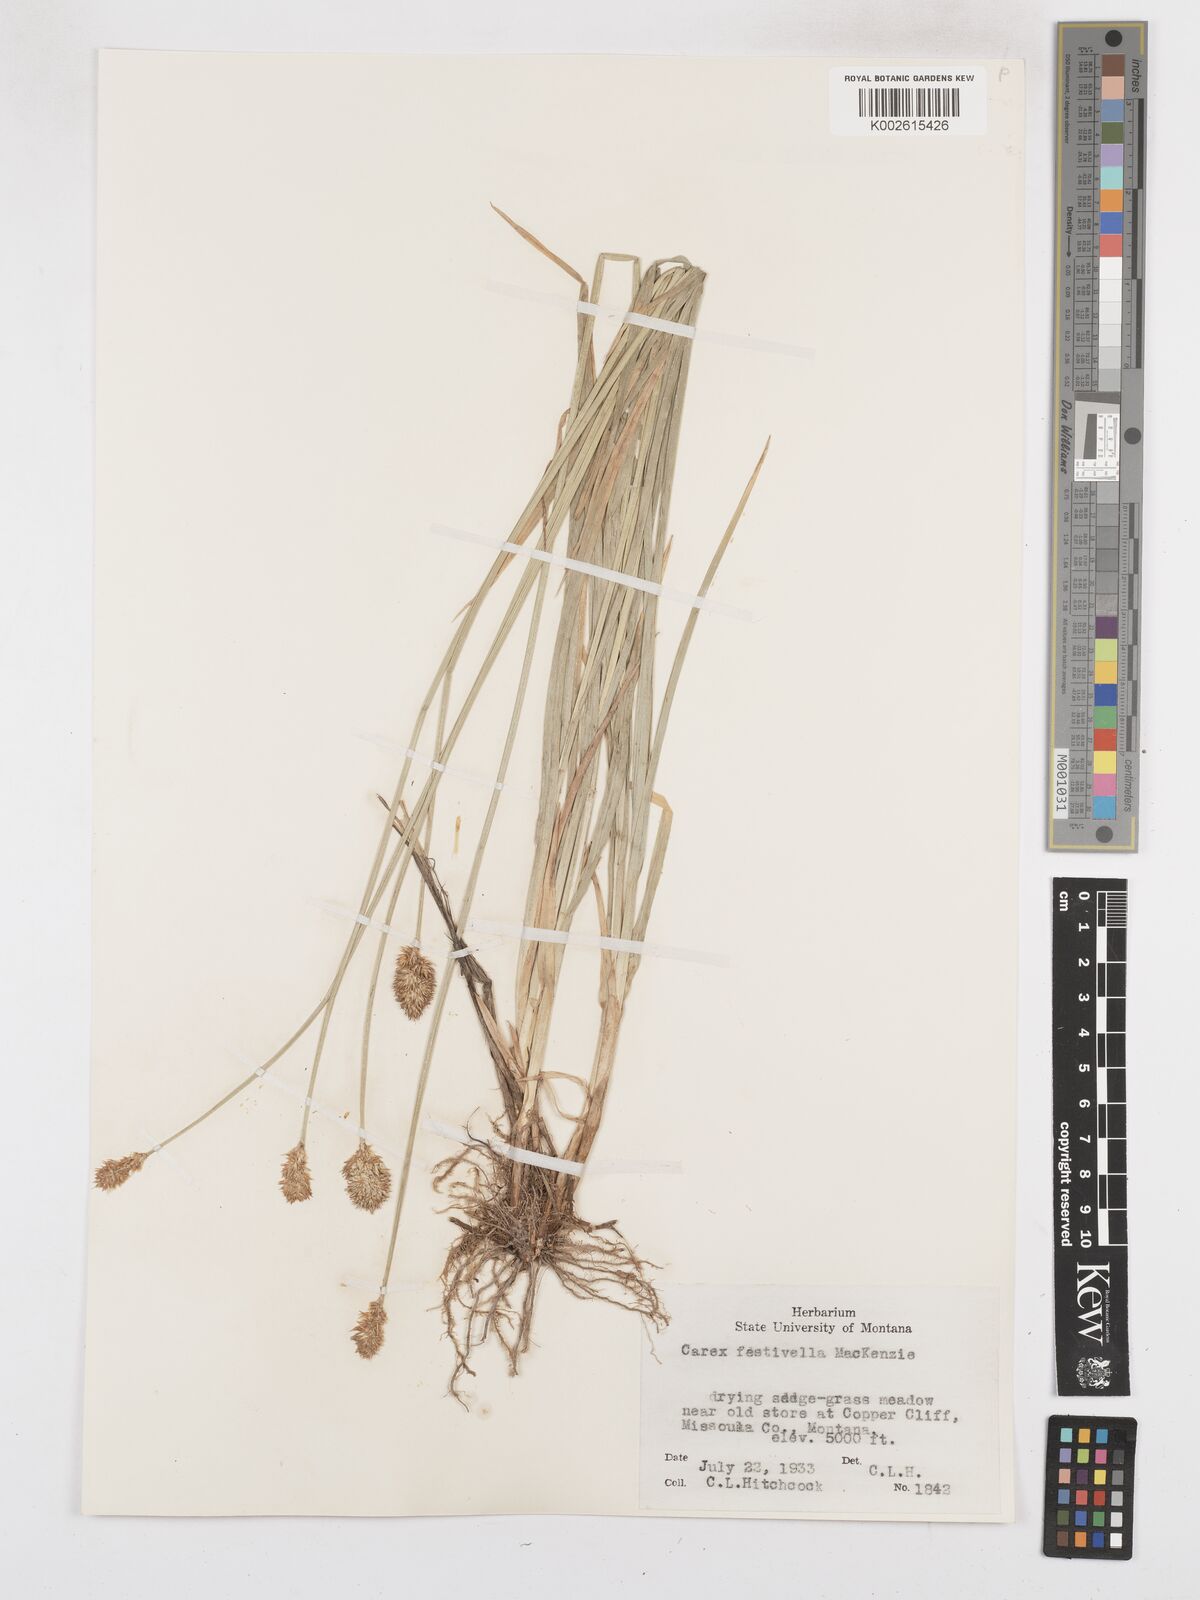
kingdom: Plantae
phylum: Tracheophyta
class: Liliopsida
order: Poales
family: Cyperaceae
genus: Carex
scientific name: Carex microptera
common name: Oval-headed sedge
